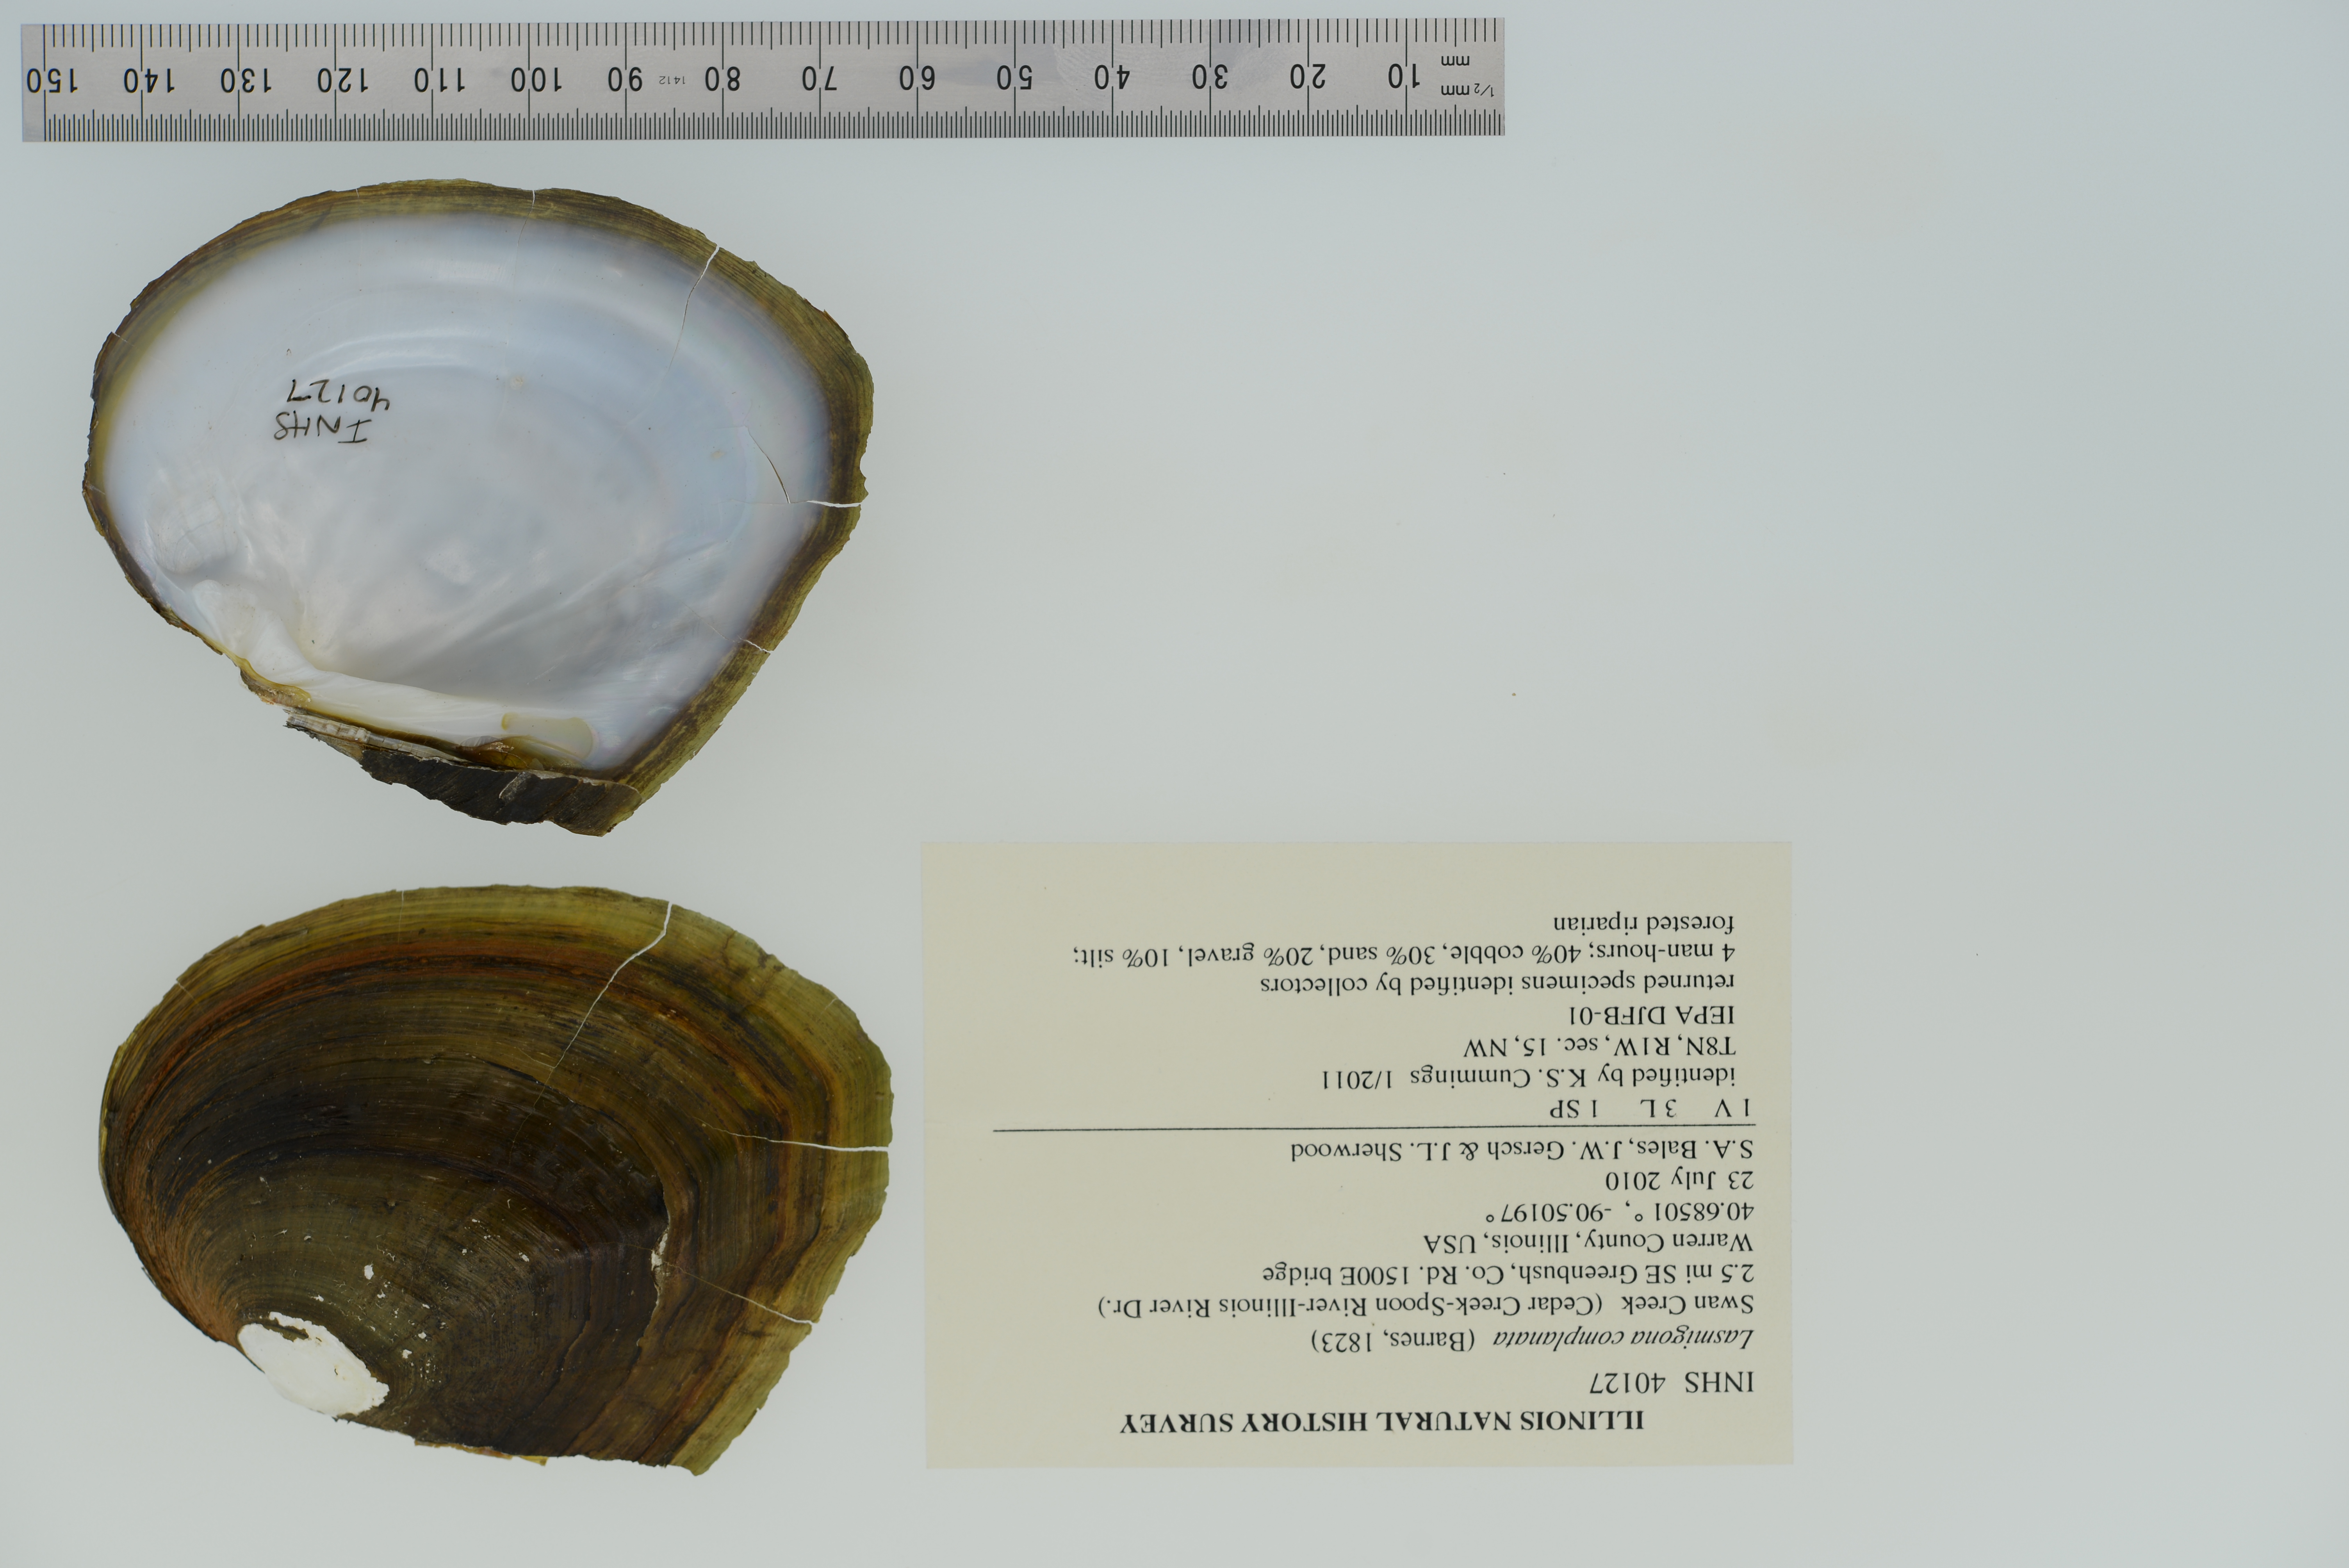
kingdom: Animalia
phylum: Mollusca
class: Bivalvia
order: Unionida
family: Unionidae
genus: Lasmigona
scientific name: Lasmigona complanata
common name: White heelsplitter
